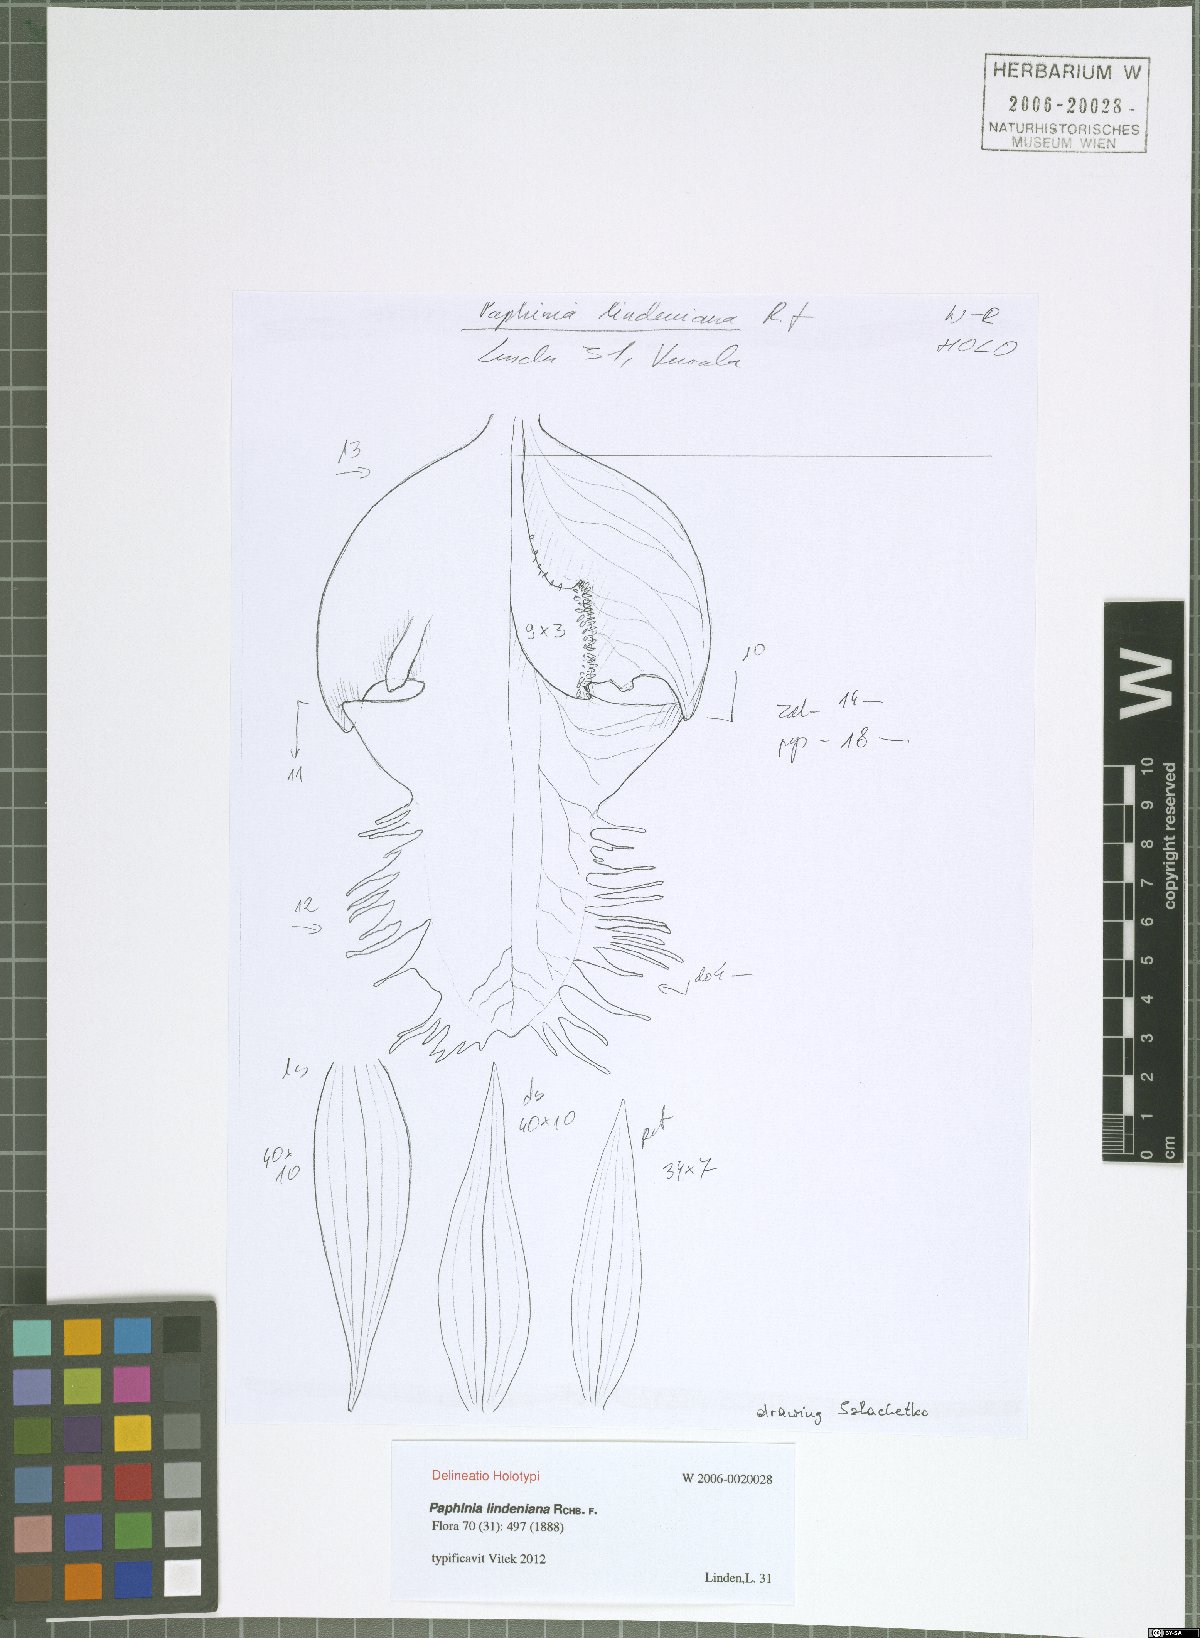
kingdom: Plantae
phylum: Tracheophyta
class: Liliopsida
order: Asparagales
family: Orchidaceae
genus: Paphinia
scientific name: Paphinia lindeniana
